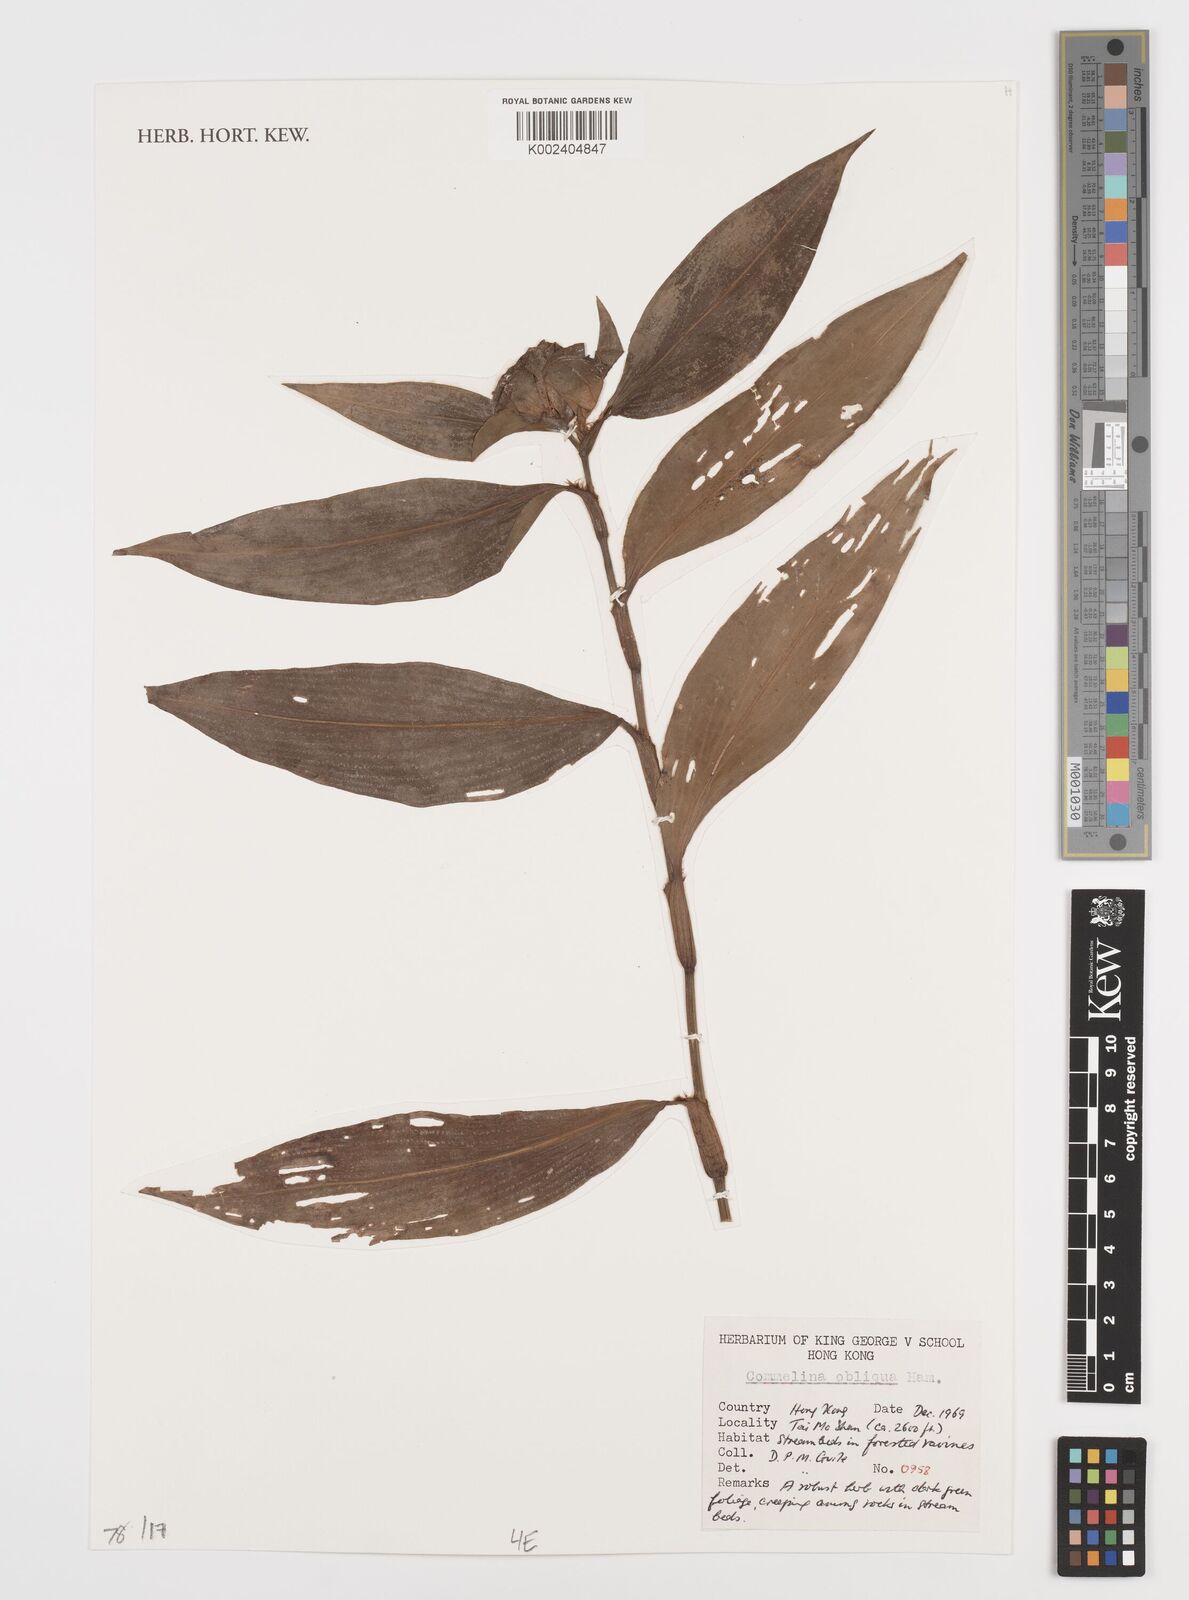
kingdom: Plantae
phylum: Tracheophyta
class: Liliopsida
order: Commelinales
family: Commelinaceae
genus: Commelina
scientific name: Commelina obliqua
